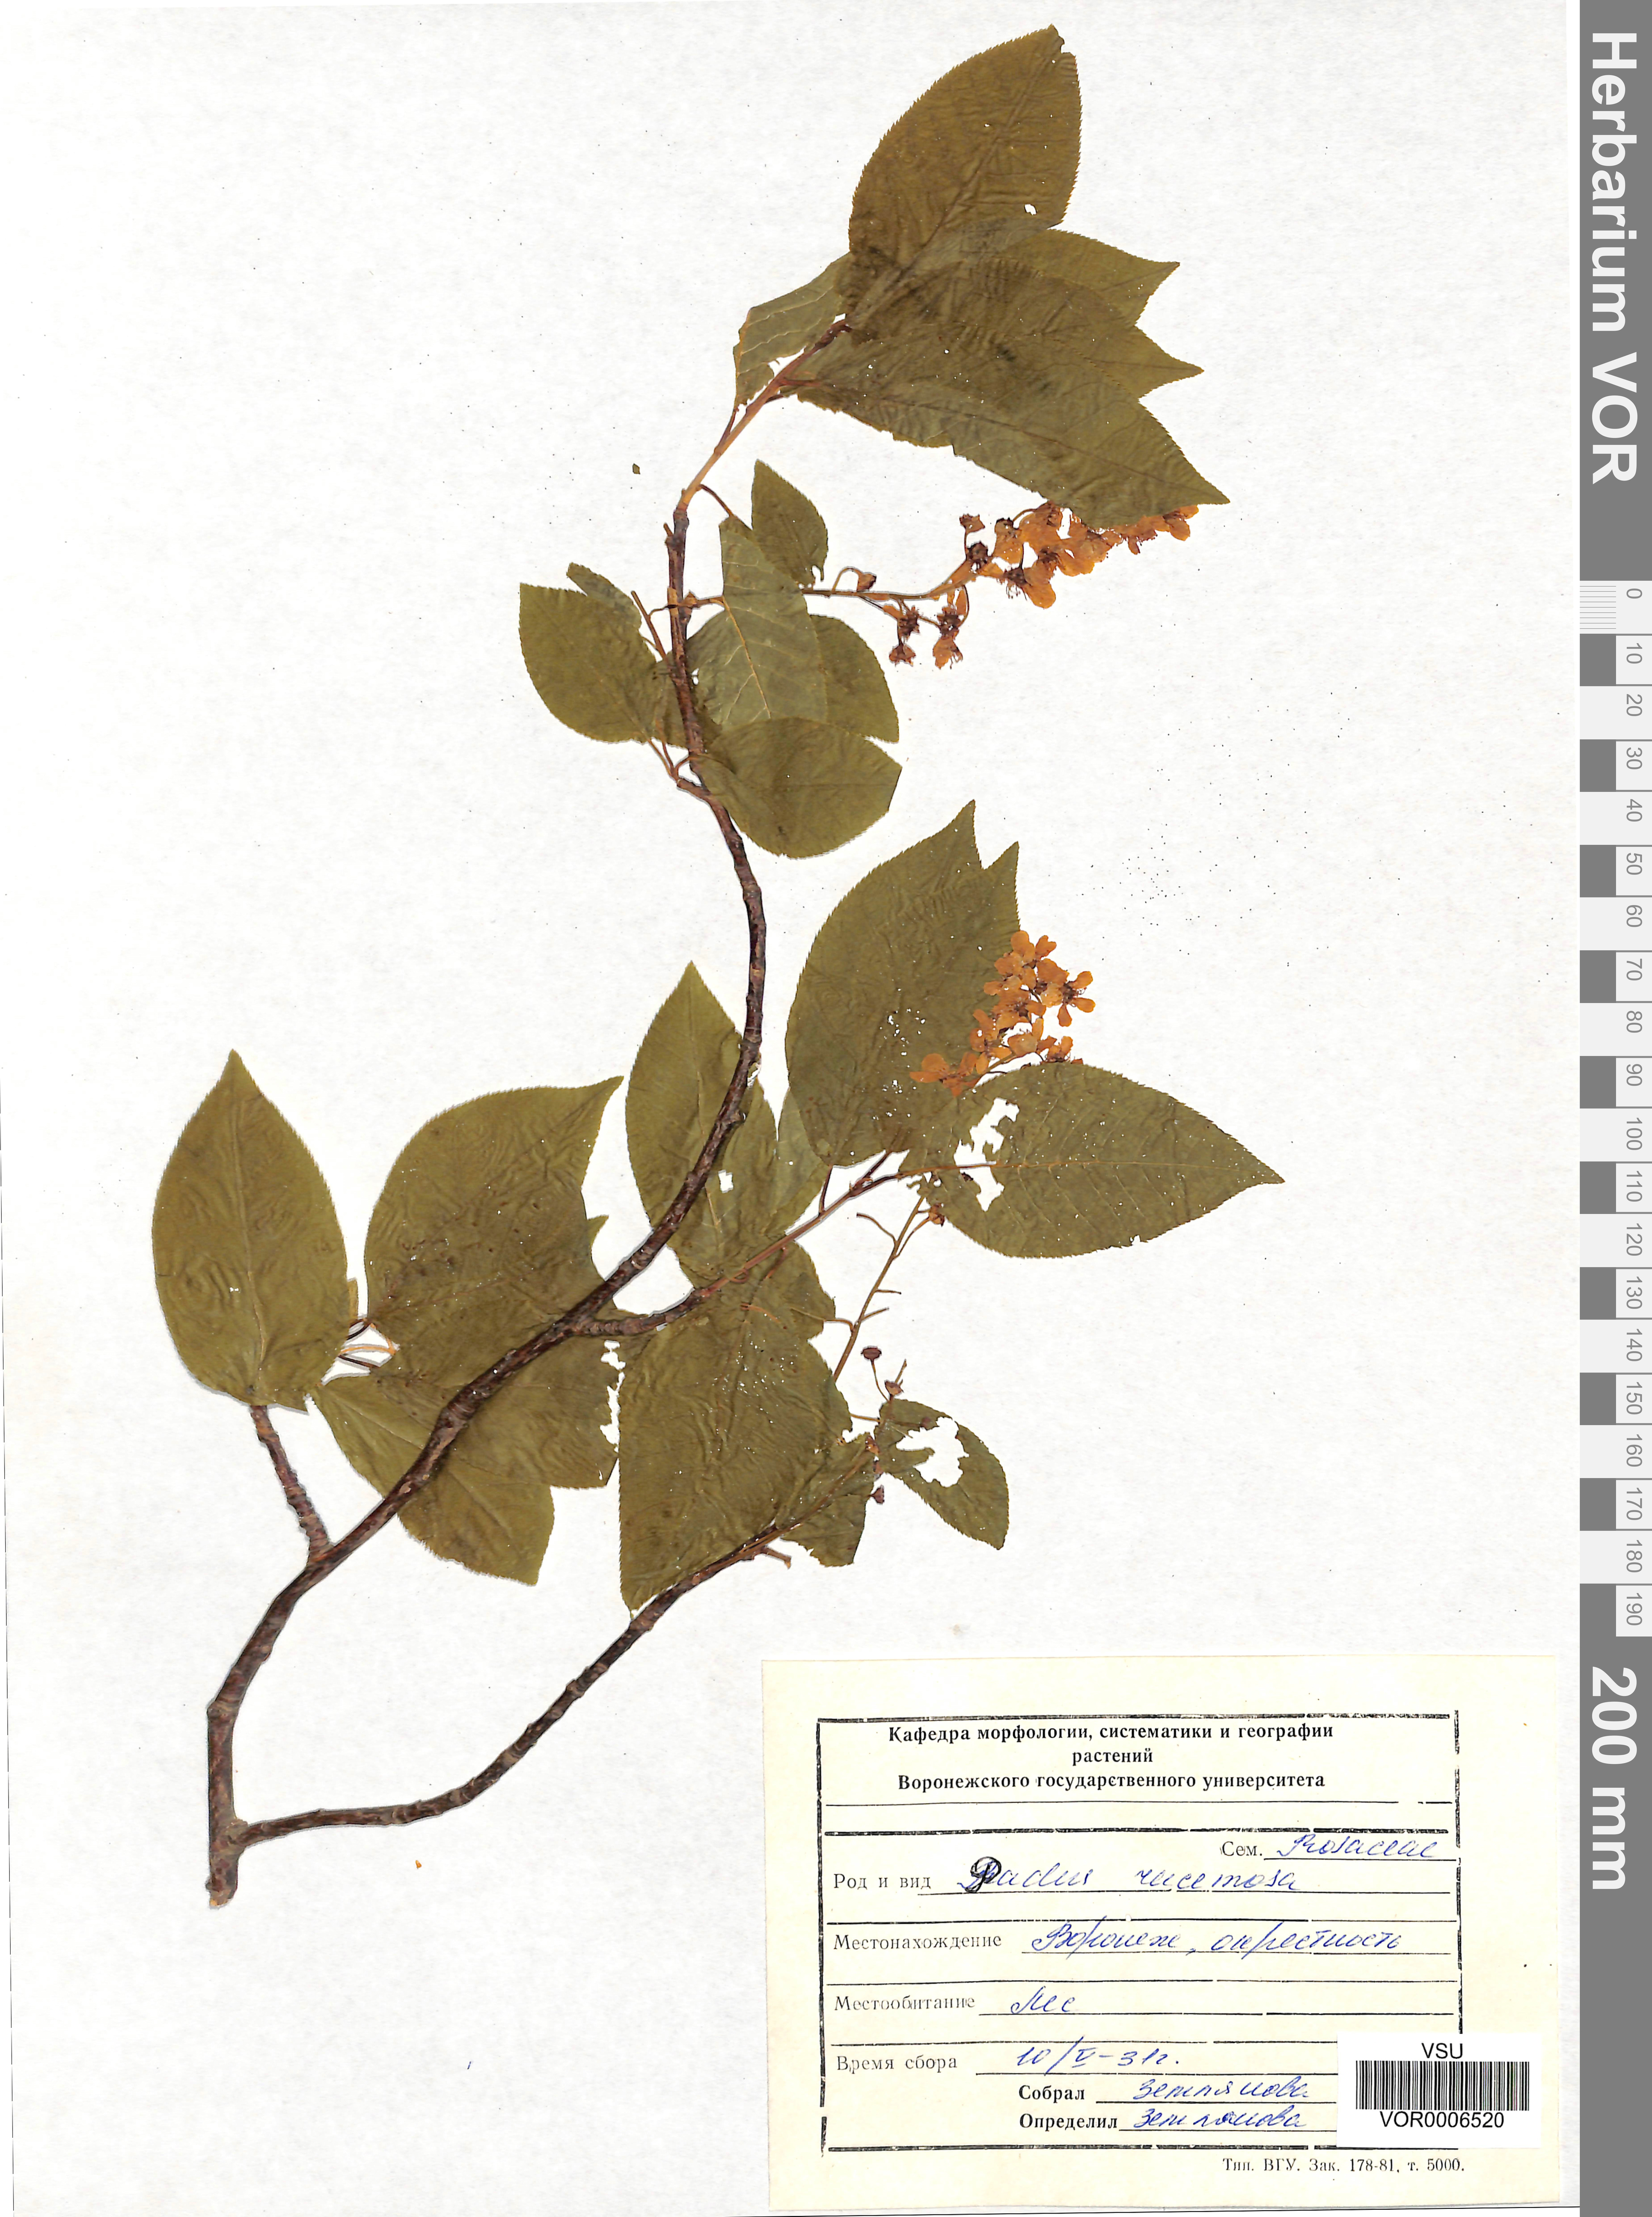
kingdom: Plantae
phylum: Tracheophyta
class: Magnoliopsida
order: Rosales
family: Rosaceae
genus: Prunus
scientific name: Prunus padus
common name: Bird cherry
